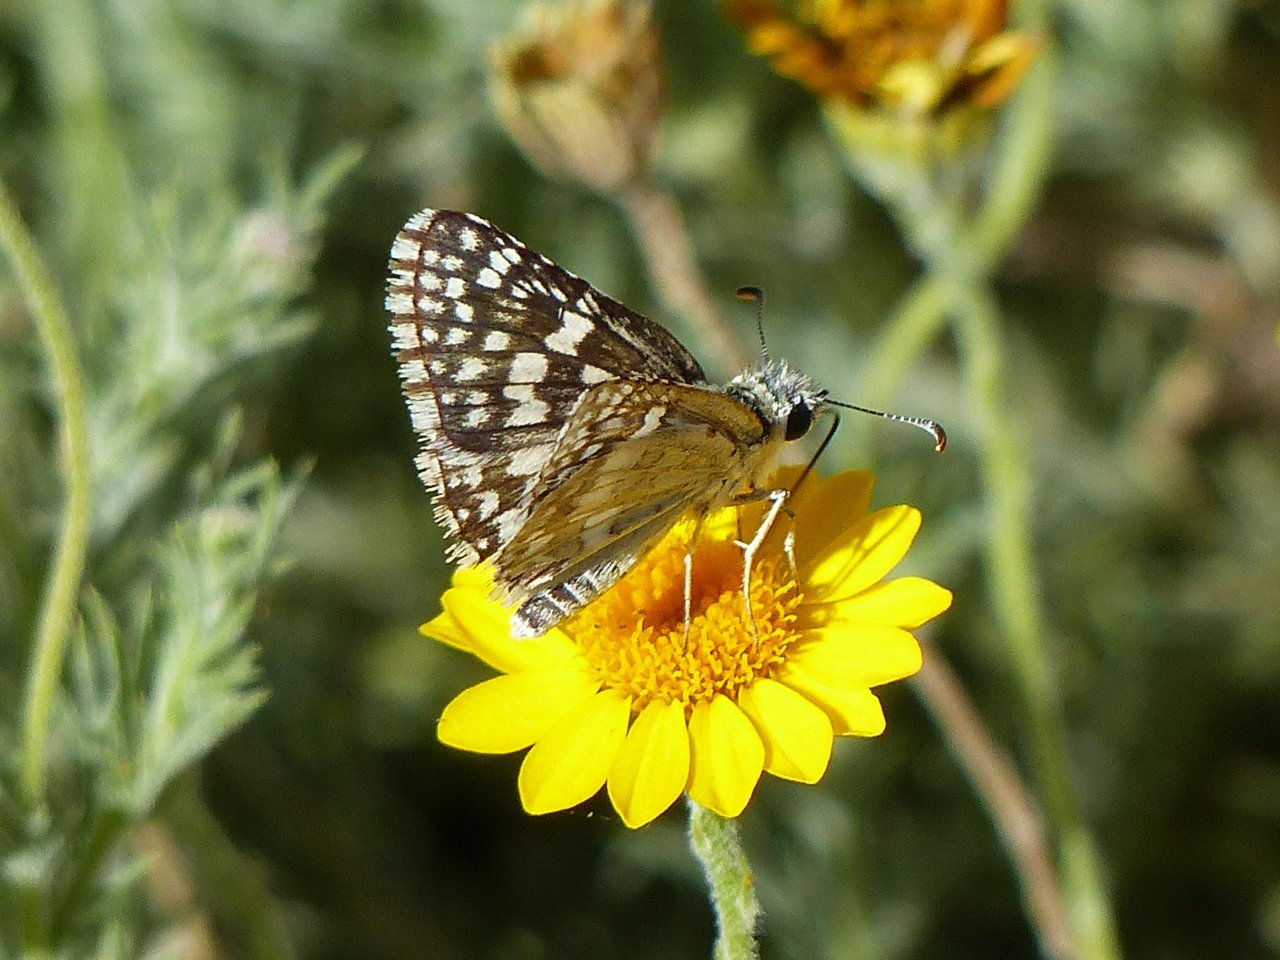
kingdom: Animalia
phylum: Arthropoda
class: Insecta
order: Lepidoptera
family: Hesperiidae
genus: Pyrgus
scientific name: Pyrgus communis
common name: White Checkered-Skipper
